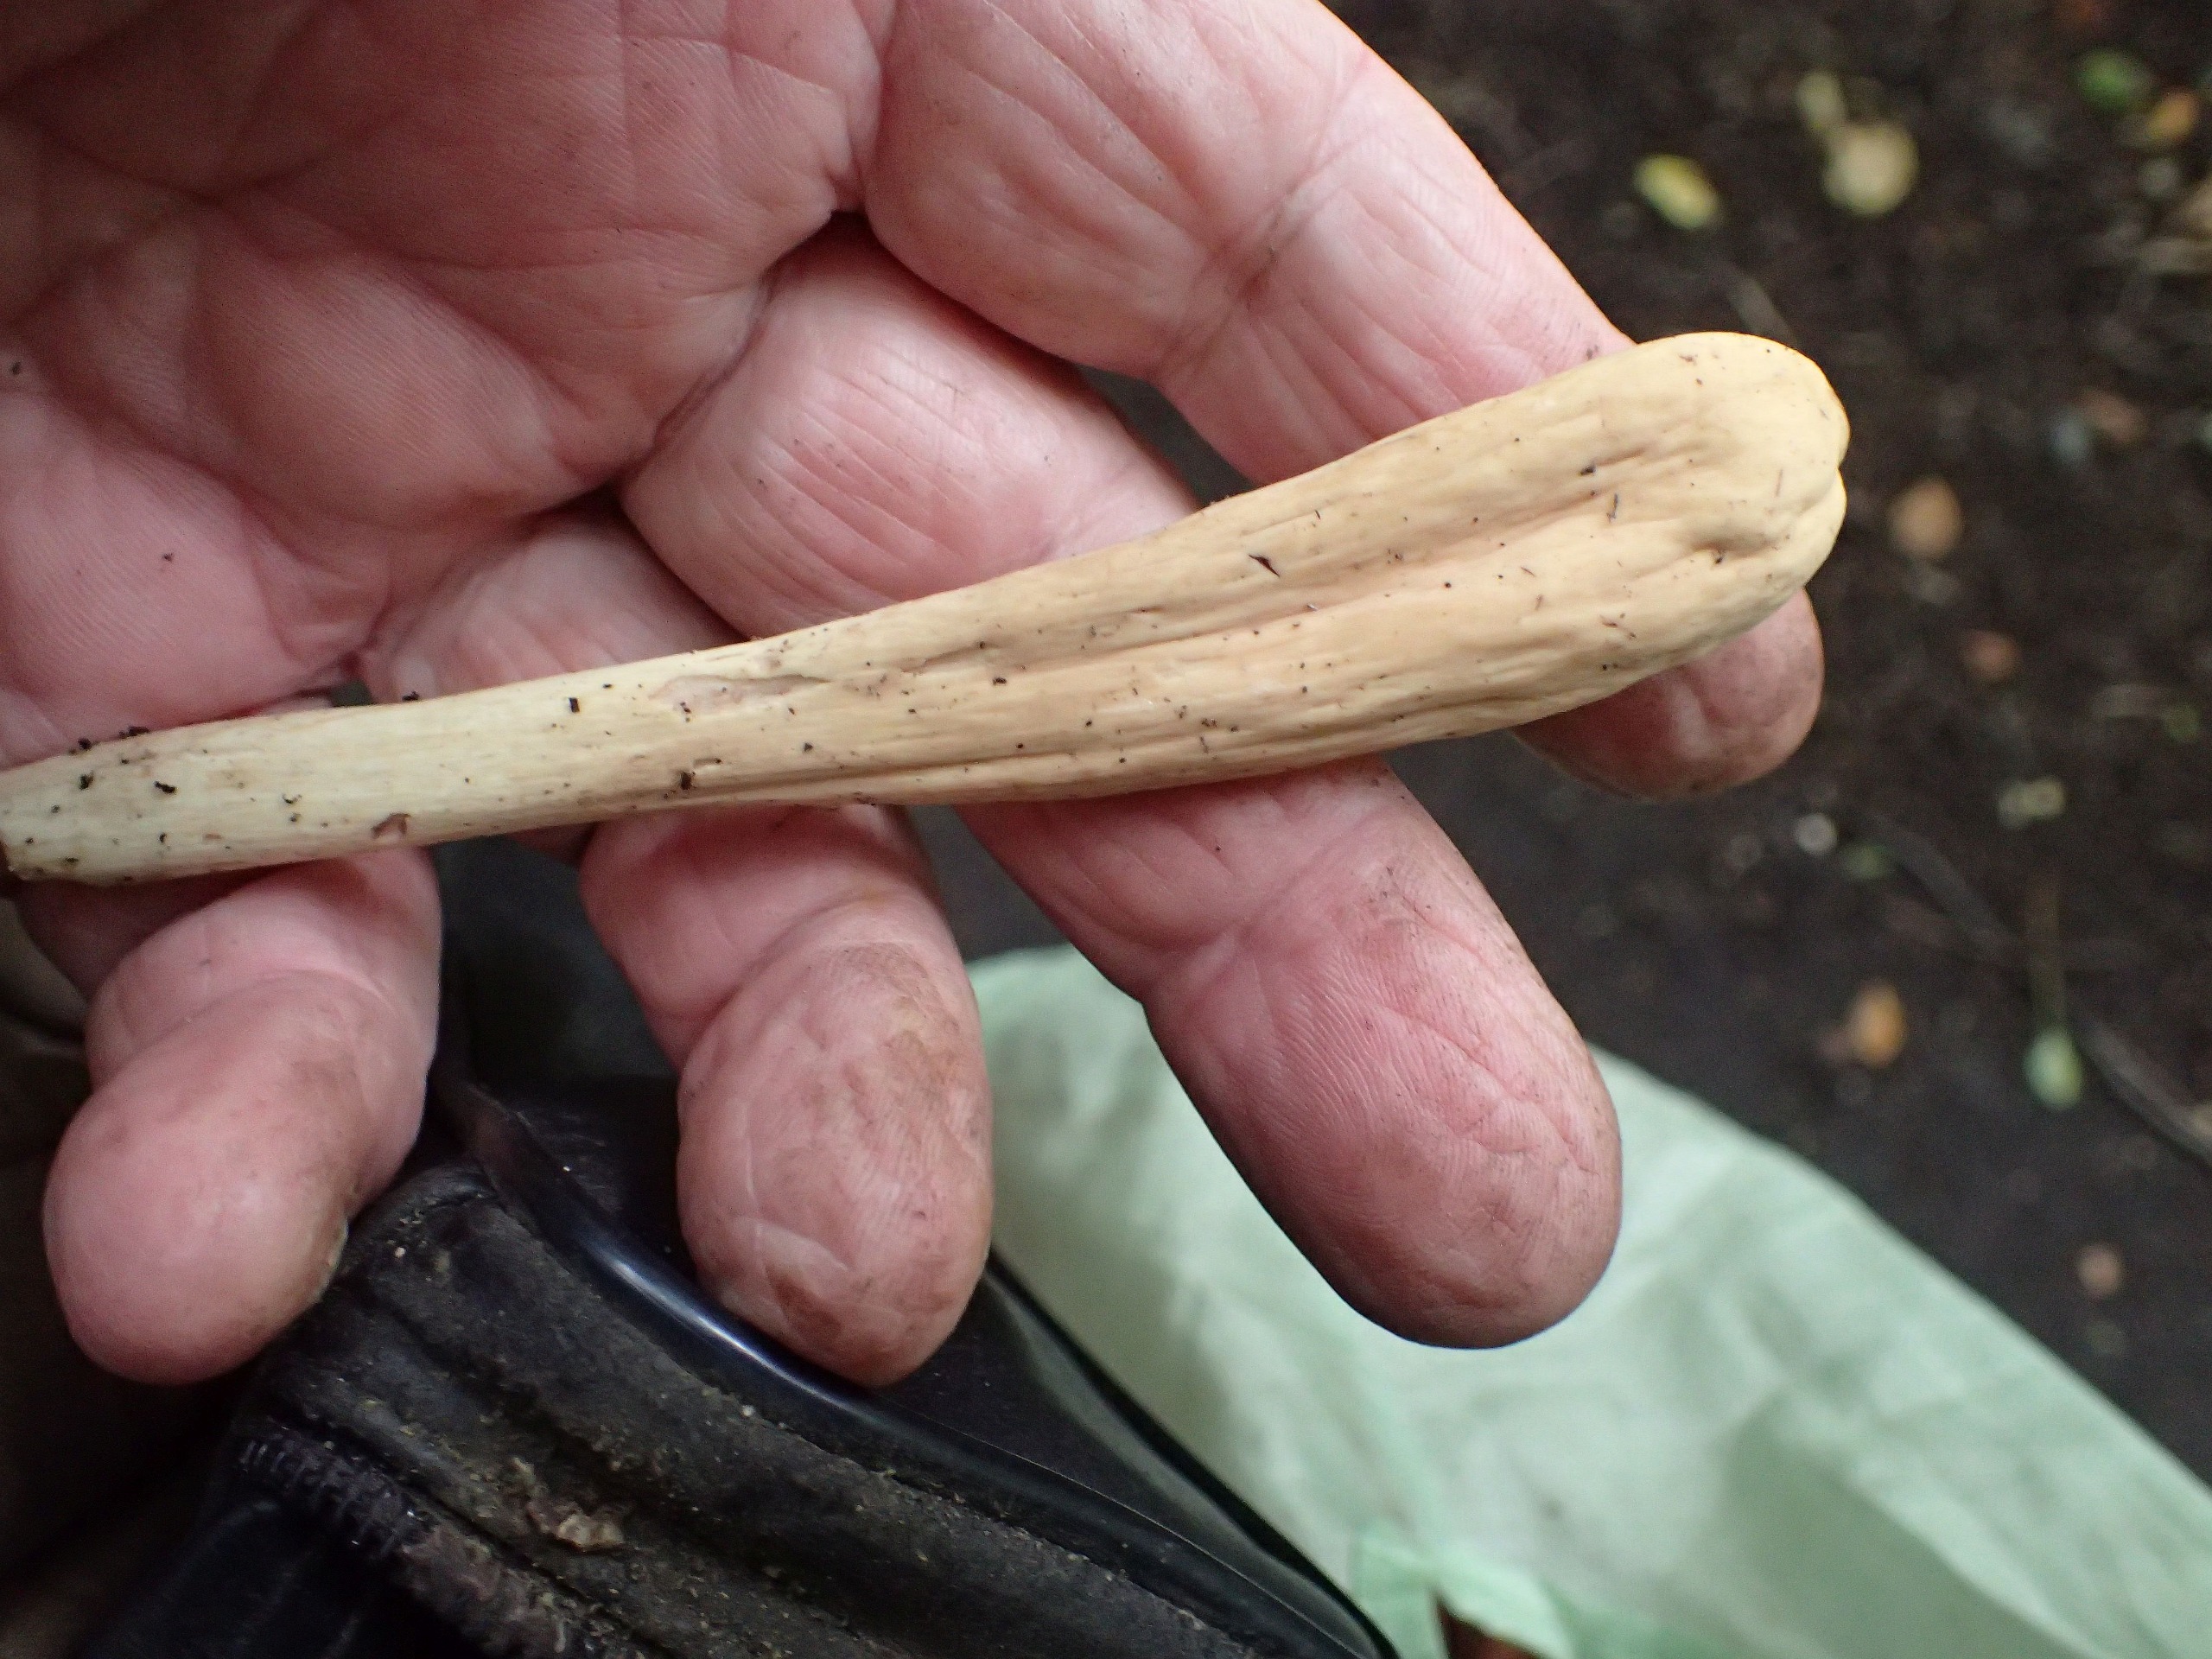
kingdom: Fungi
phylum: Basidiomycota
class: Agaricomycetes
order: Gomphales
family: Clavariadelphaceae
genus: Clavariadelphus
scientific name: Clavariadelphus pistillaris
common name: Herkules-kæmpekølle
